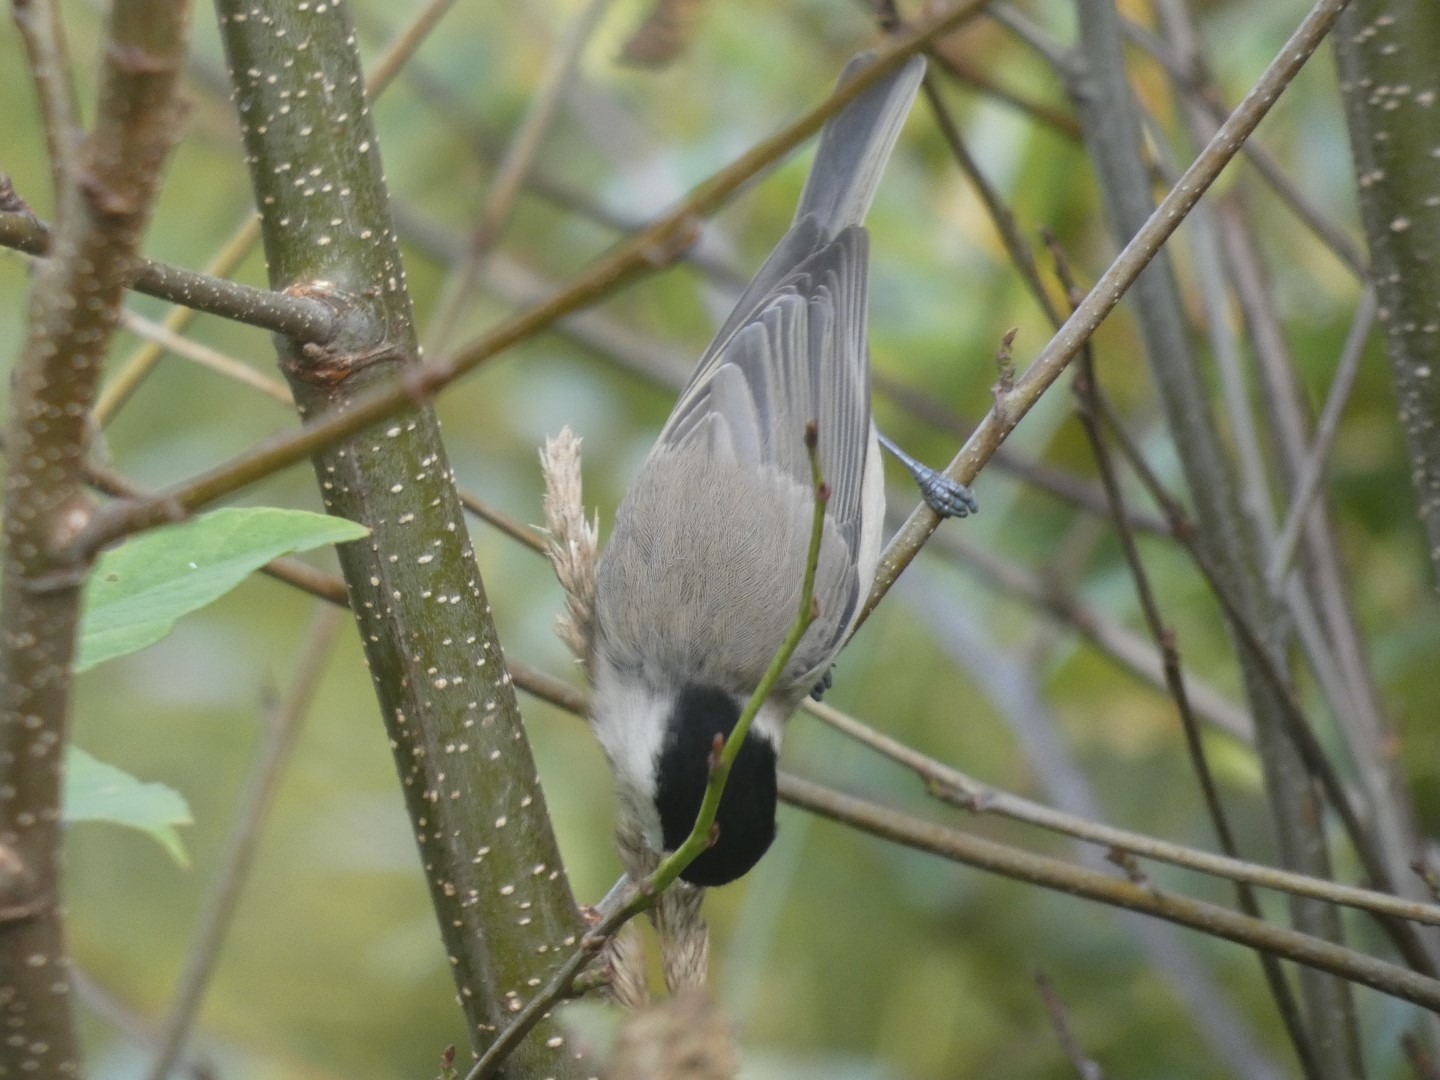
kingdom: Animalia
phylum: Chordata
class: Aves
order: Passeriformes
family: Paridae
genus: Poecile
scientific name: Poecile palustris
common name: Sumpmejse
